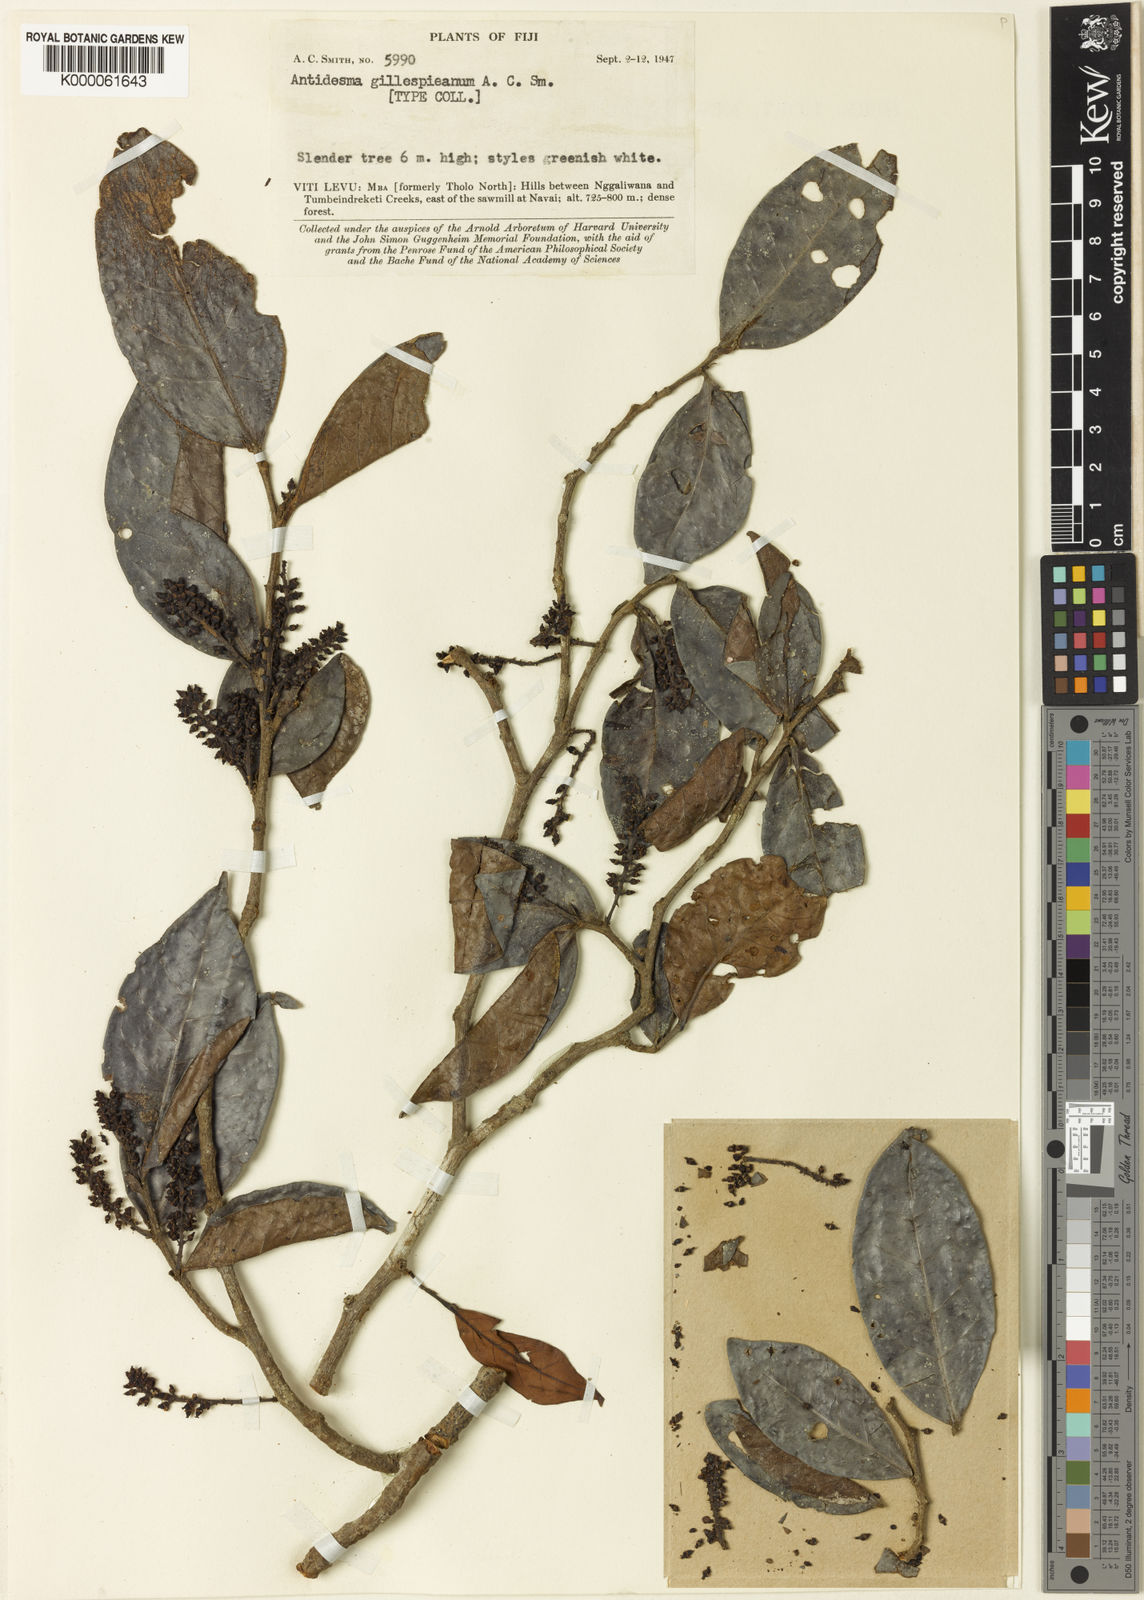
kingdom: Plantae
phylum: Tracheophyta
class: Magnoliopsida
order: Malpighiales
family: Phyllanthaceae
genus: Antidesma
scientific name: Antidesma gillespieanum
